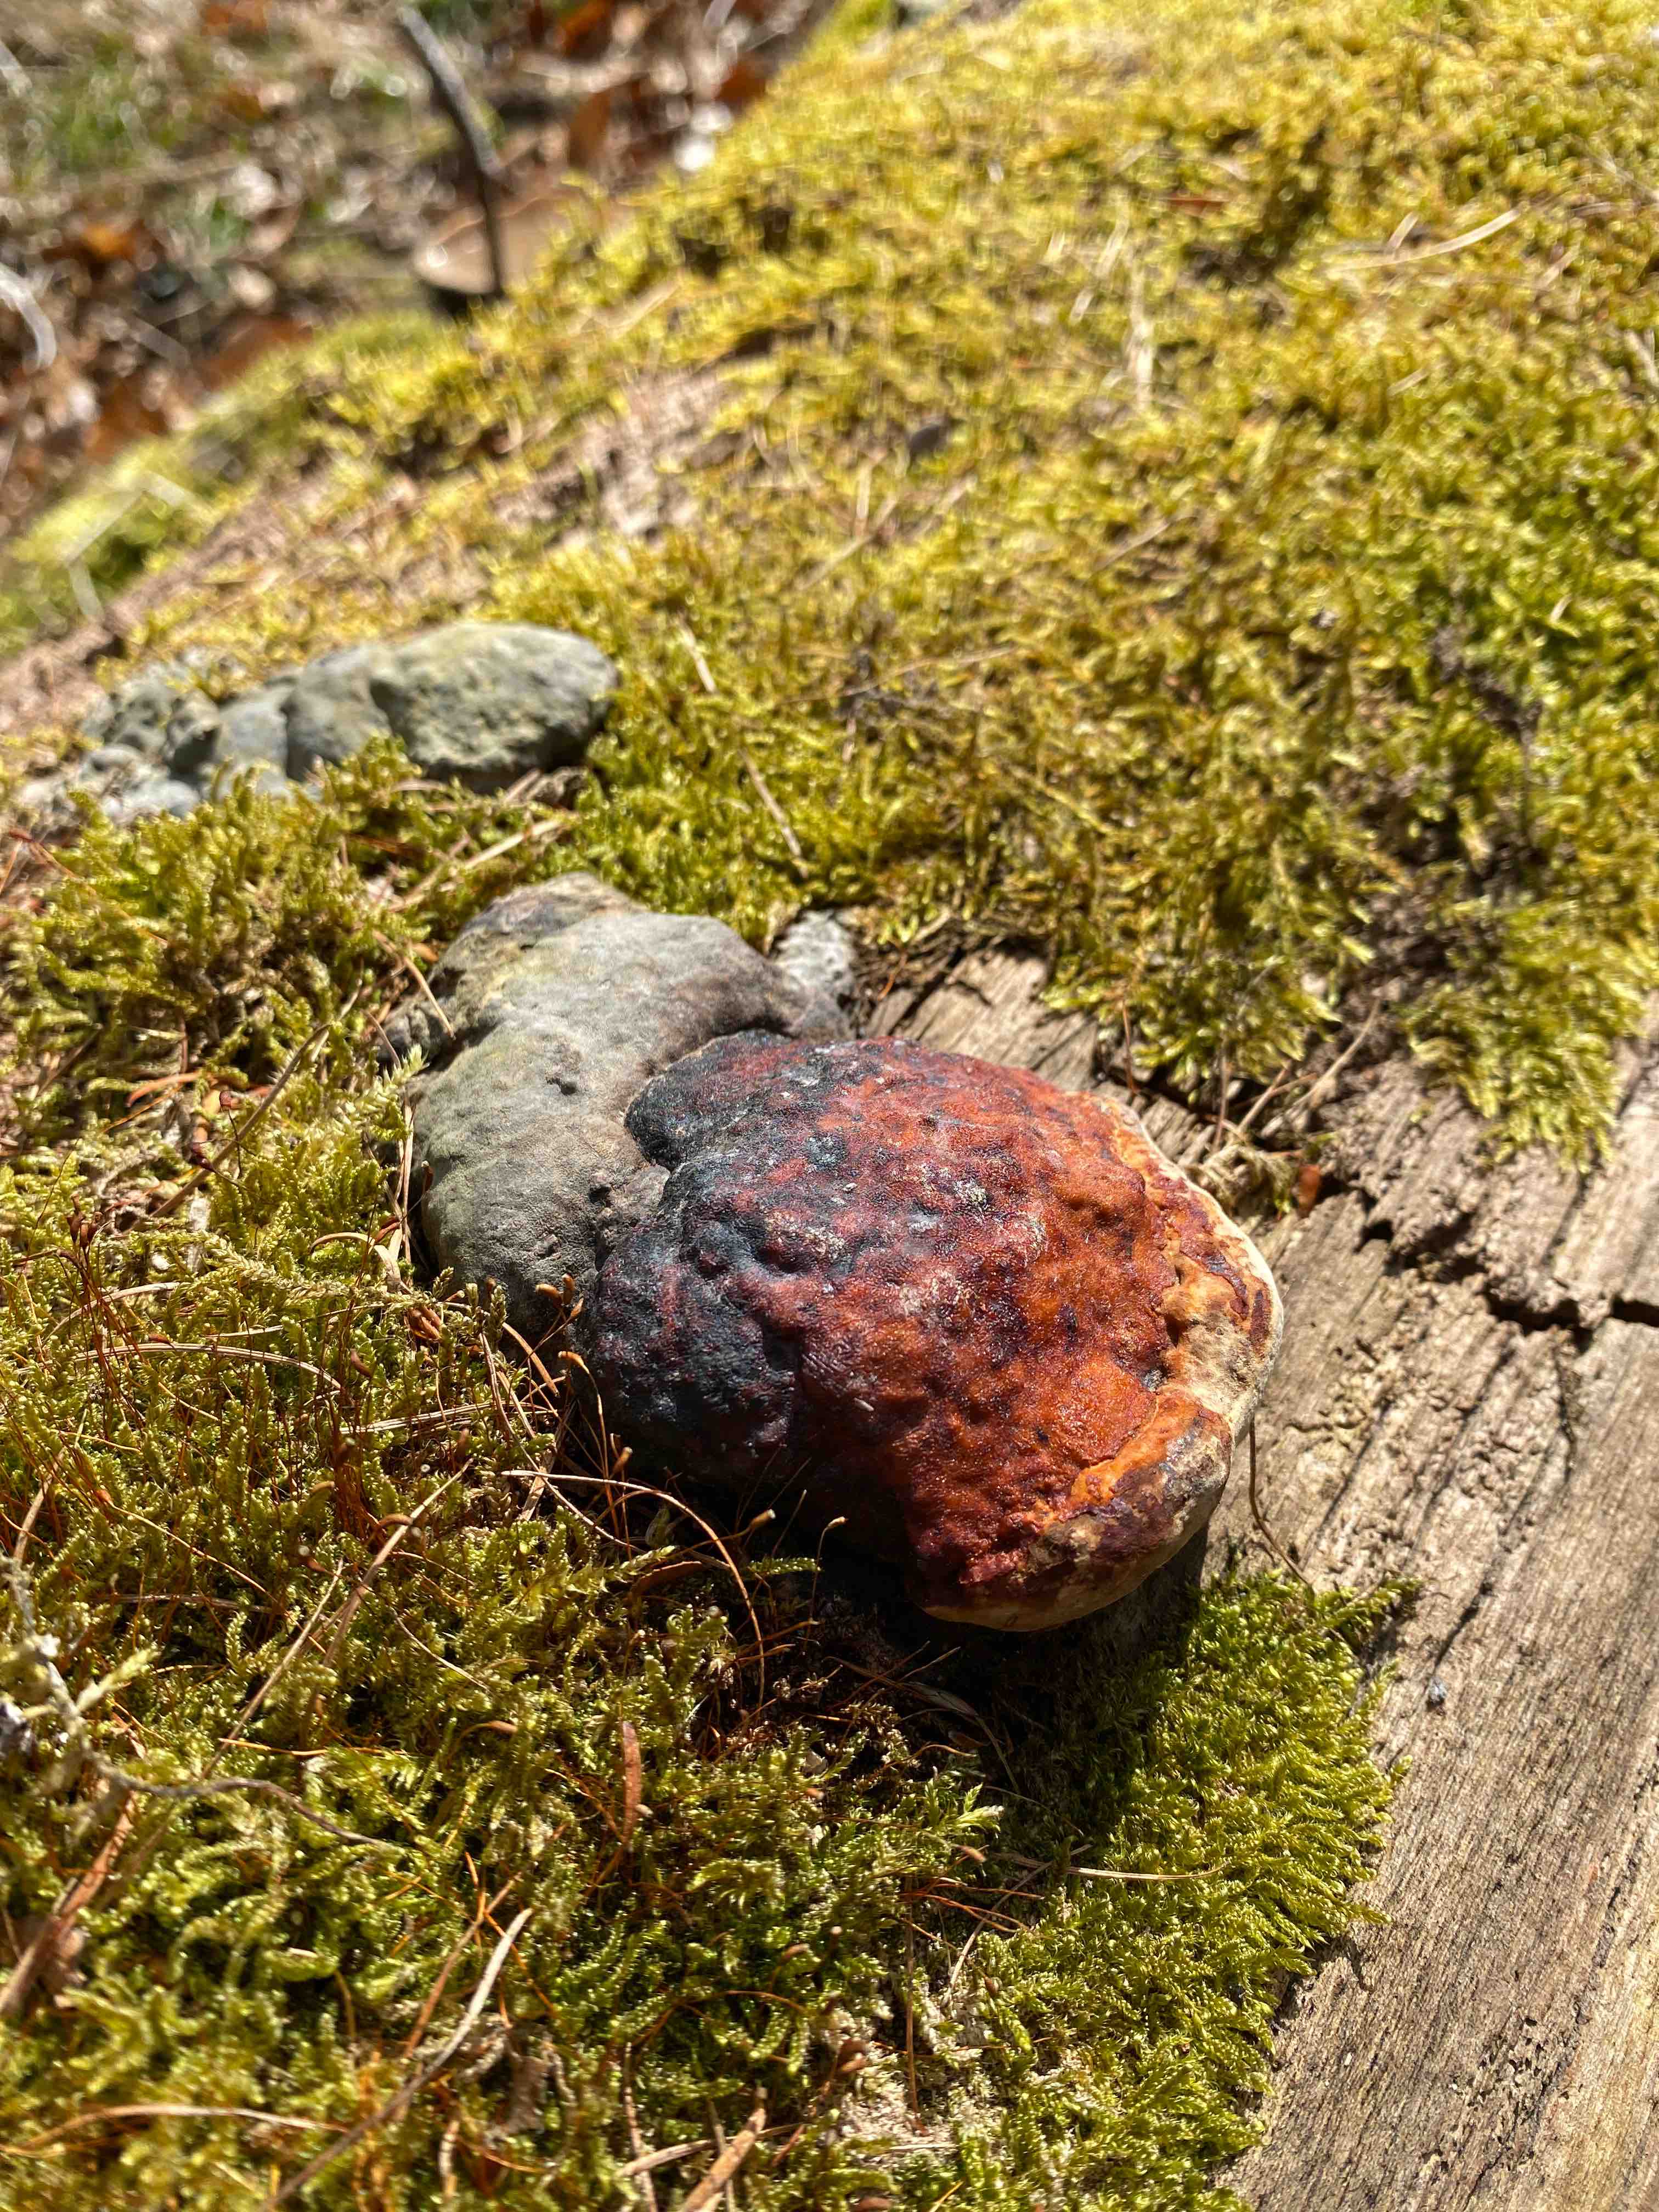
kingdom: Fungi
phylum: Basidiomycota
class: Agaricomycetes
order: Polyporales
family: Fomitopsidaceae
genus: Fomitopsis
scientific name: Fomitopsis pinicola
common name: randbæltet hovporesvamp
